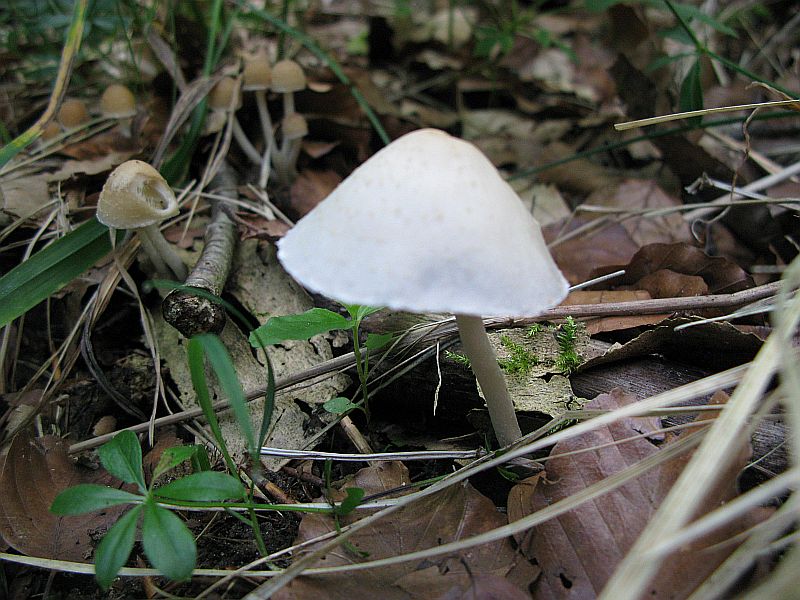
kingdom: Fungi
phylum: Basidiomycota
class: Agaricomycetes
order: Agaricales
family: Psathyrellaceae
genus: Candolleomyces
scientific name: Candolleomyces candolleanus
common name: Candolles mørkhat
